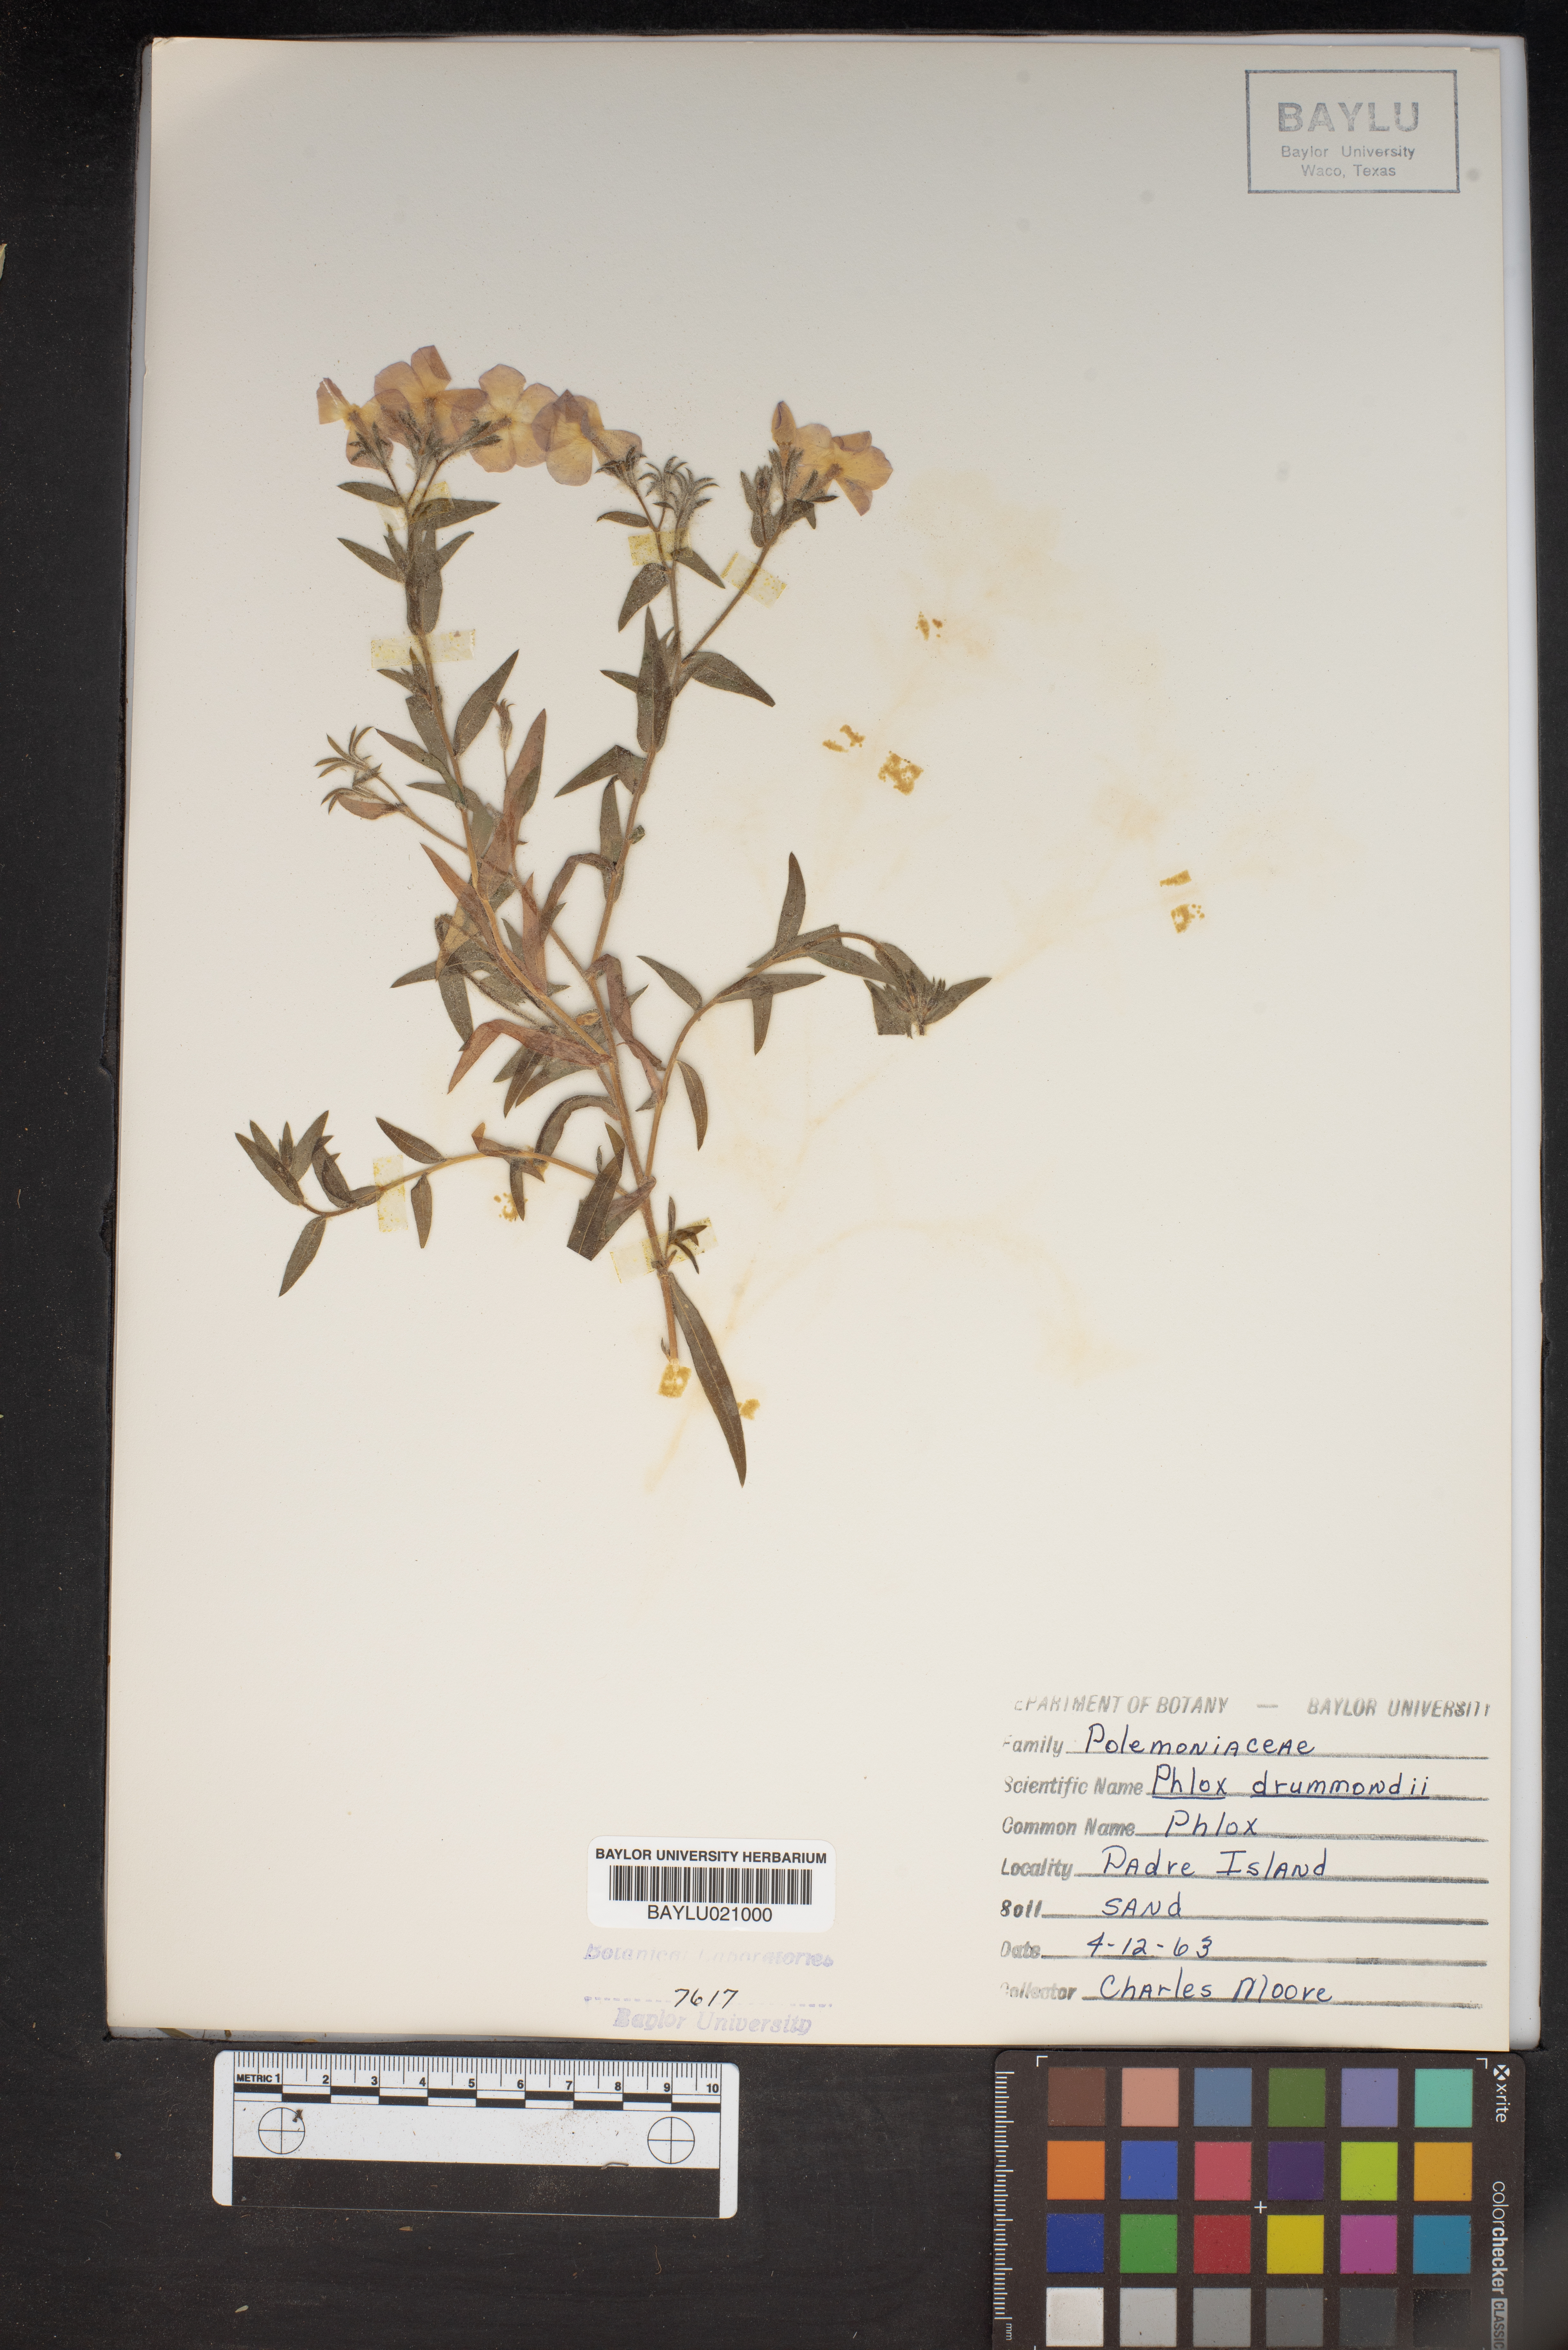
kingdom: Plantae
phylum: Tracheophyta
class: Magnoliopsida
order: Ericales
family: Polemoniaceae
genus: Phlox
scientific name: Phlox drummondii
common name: Drummond's phlox
